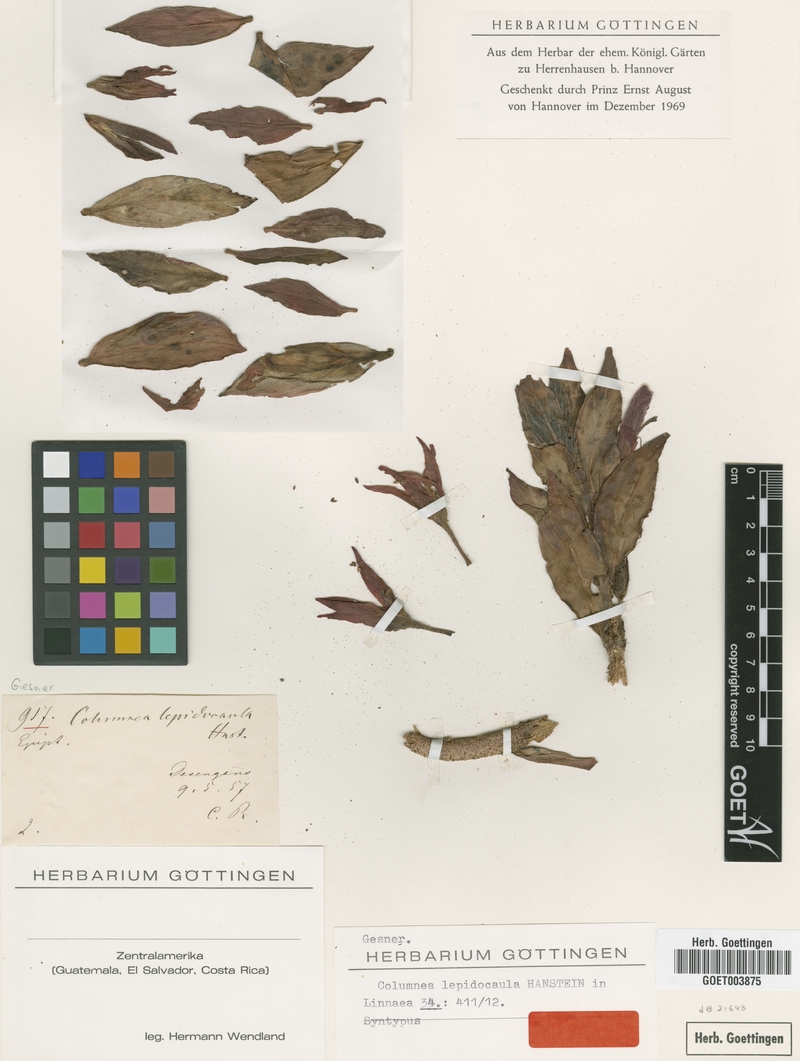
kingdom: Plantae
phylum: Tracheophyta
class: Magnoliopsida
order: Lamiales
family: Gesneriaceae
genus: Columnea
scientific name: Columnea lepidocaula
